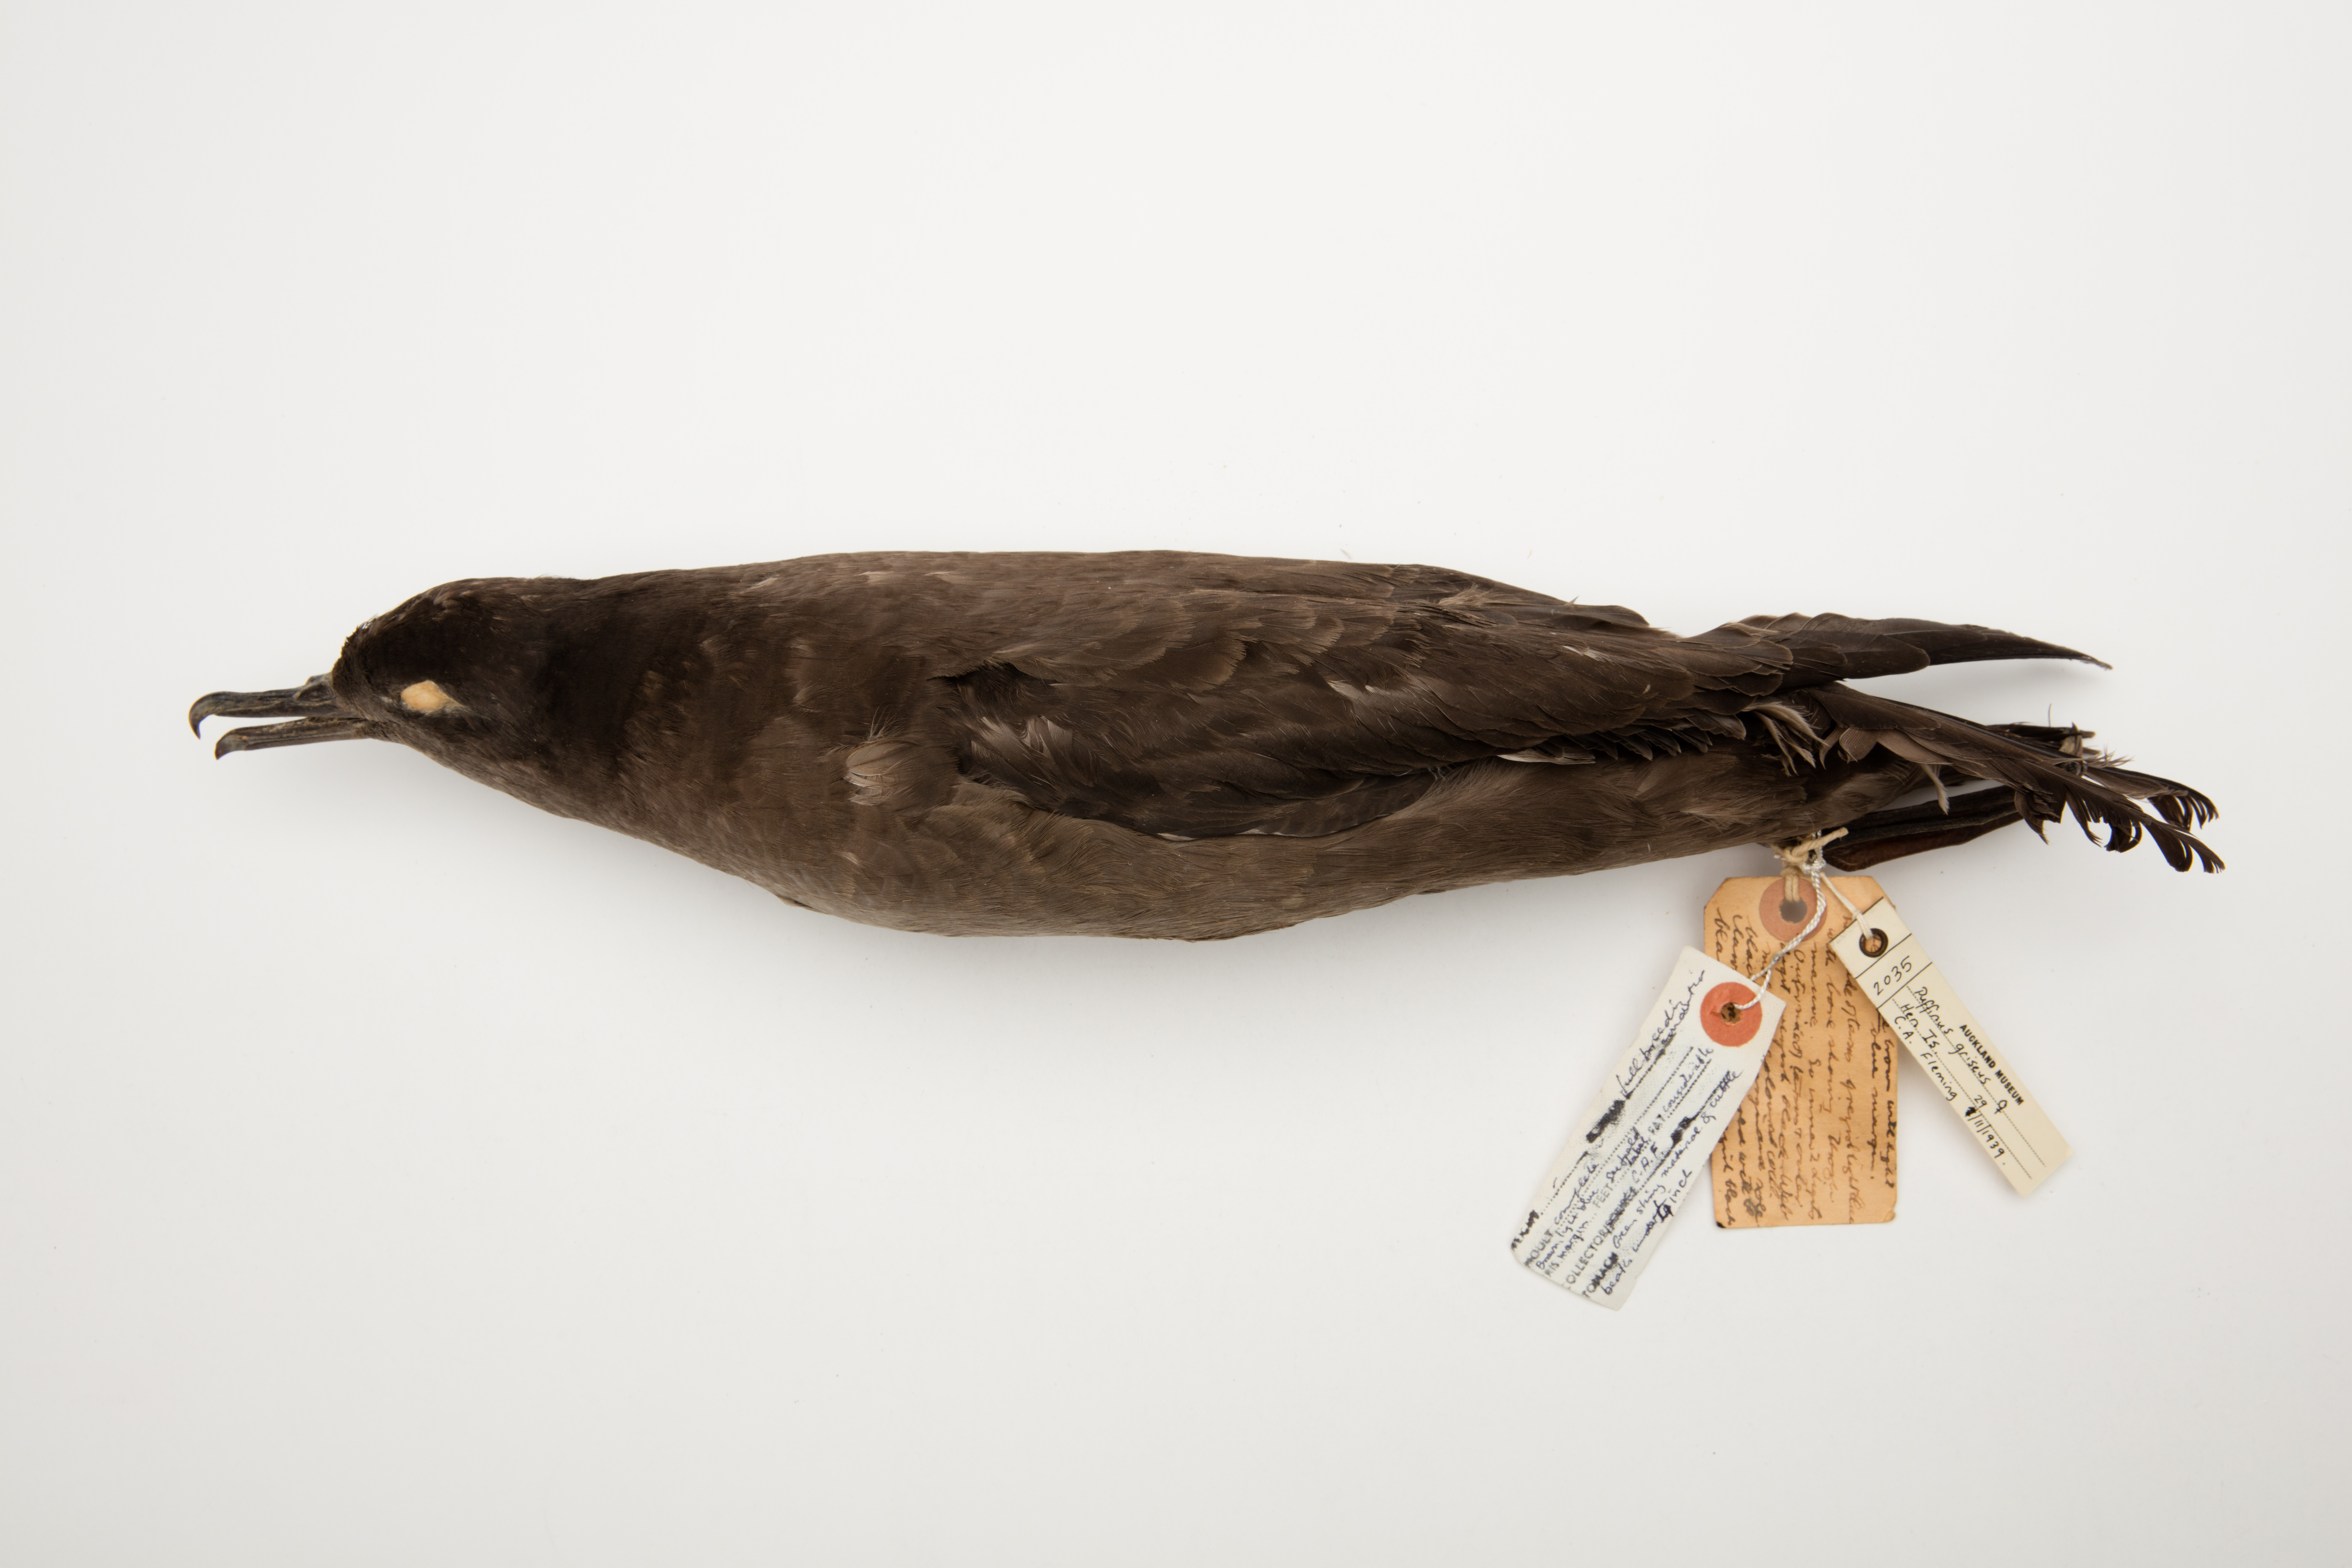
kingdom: Animalia
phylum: Chordata
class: Aves
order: Procellariiformes
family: Procellariidae
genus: Puffinus
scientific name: Puffinus griseus
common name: Sooty shearwater
